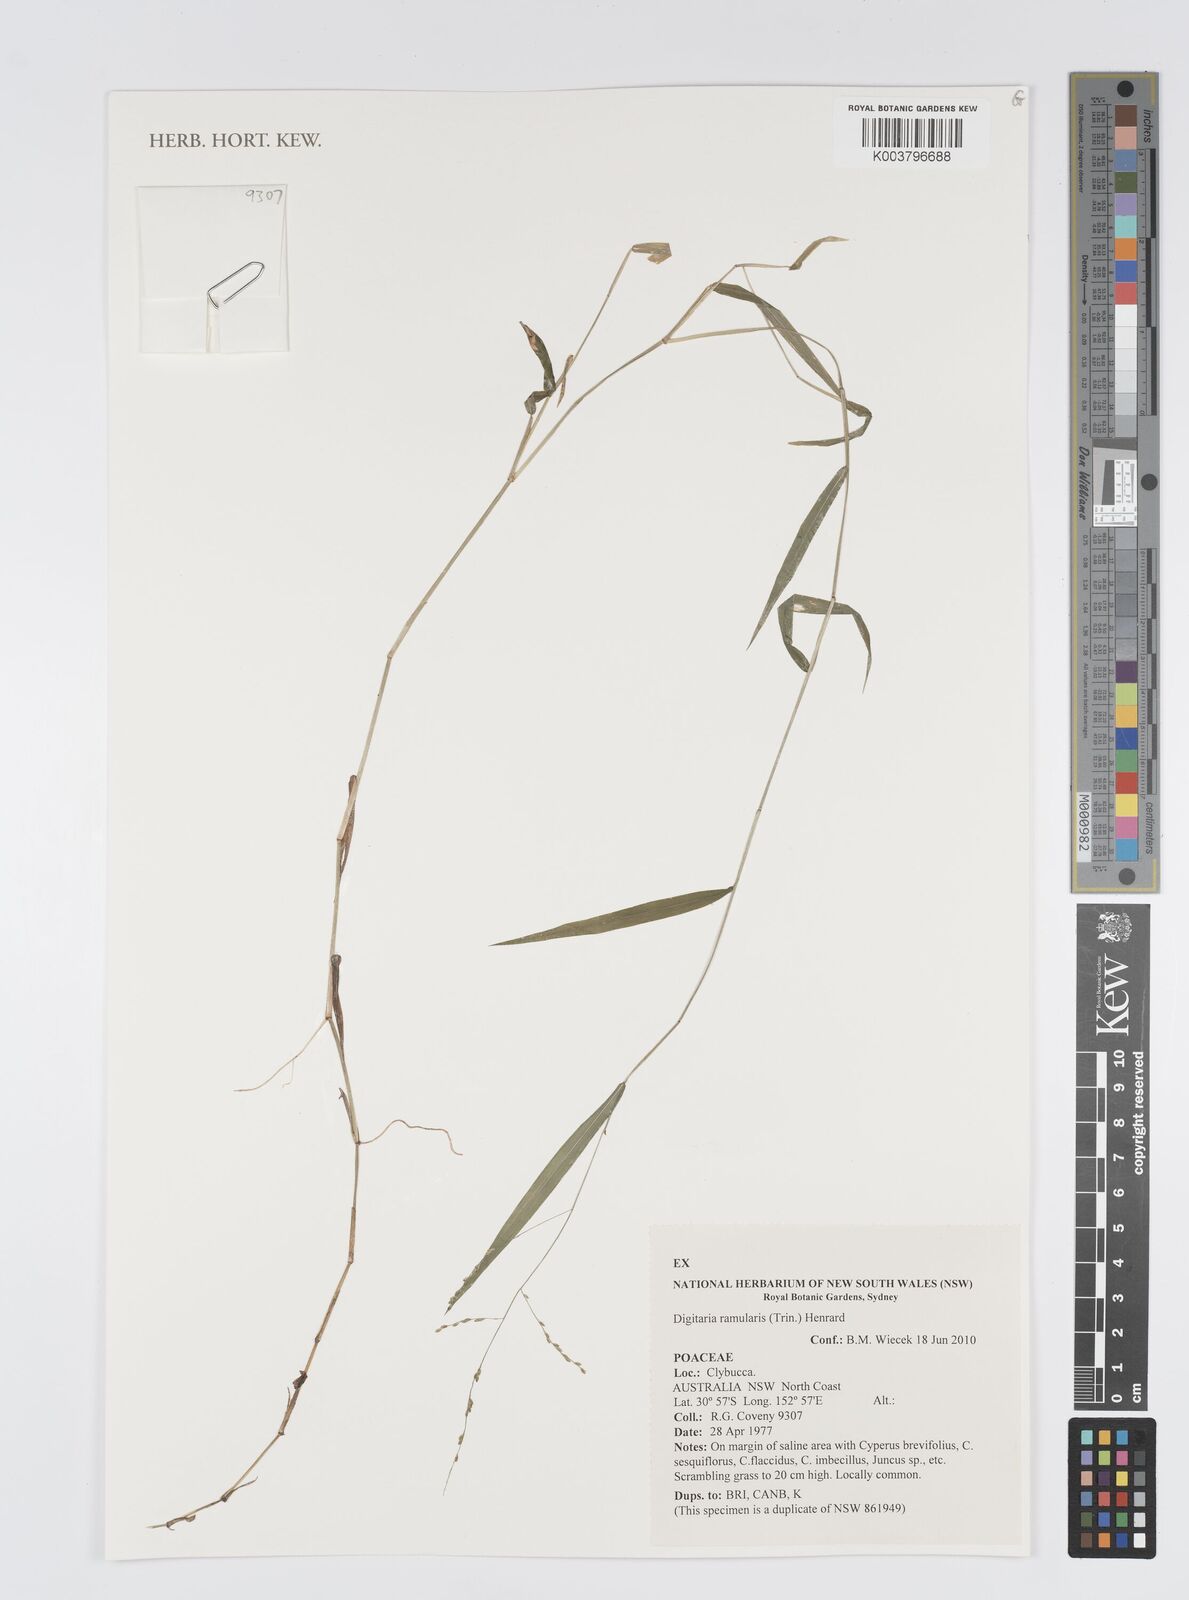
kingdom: Plantae
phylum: Tracheophyta
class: Liliopsida
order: Poales
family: Poaceae
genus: Digitaria
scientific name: Digitaria ramularis
